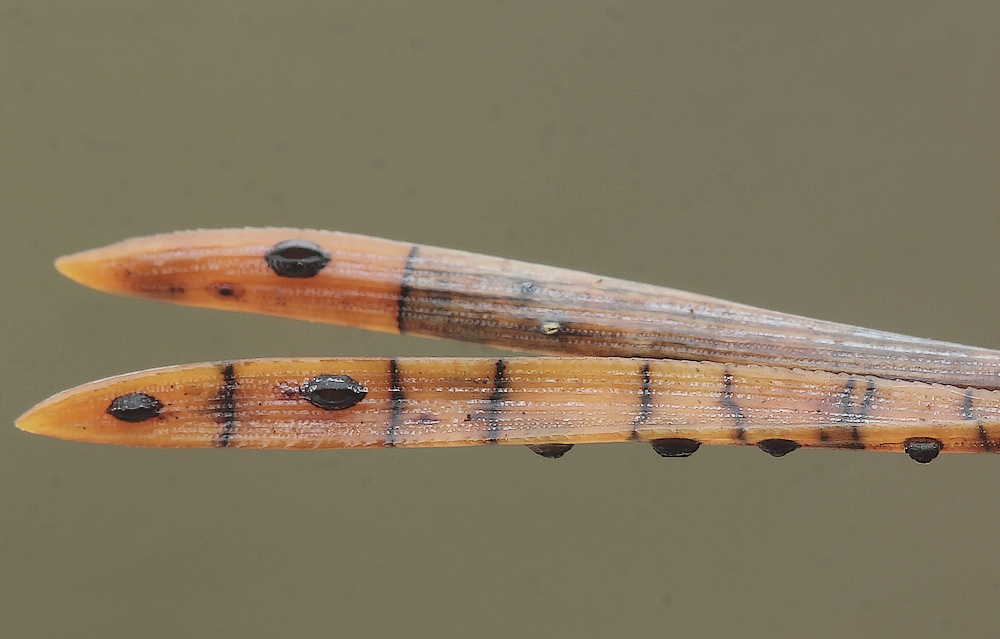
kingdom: Fungi
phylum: Ascomycota
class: Leotiomycetes
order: Rhytismatales
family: Rhytismataceae
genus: Lophodermium
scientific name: Lophodermium pinastri
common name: fyrre-fureplet
